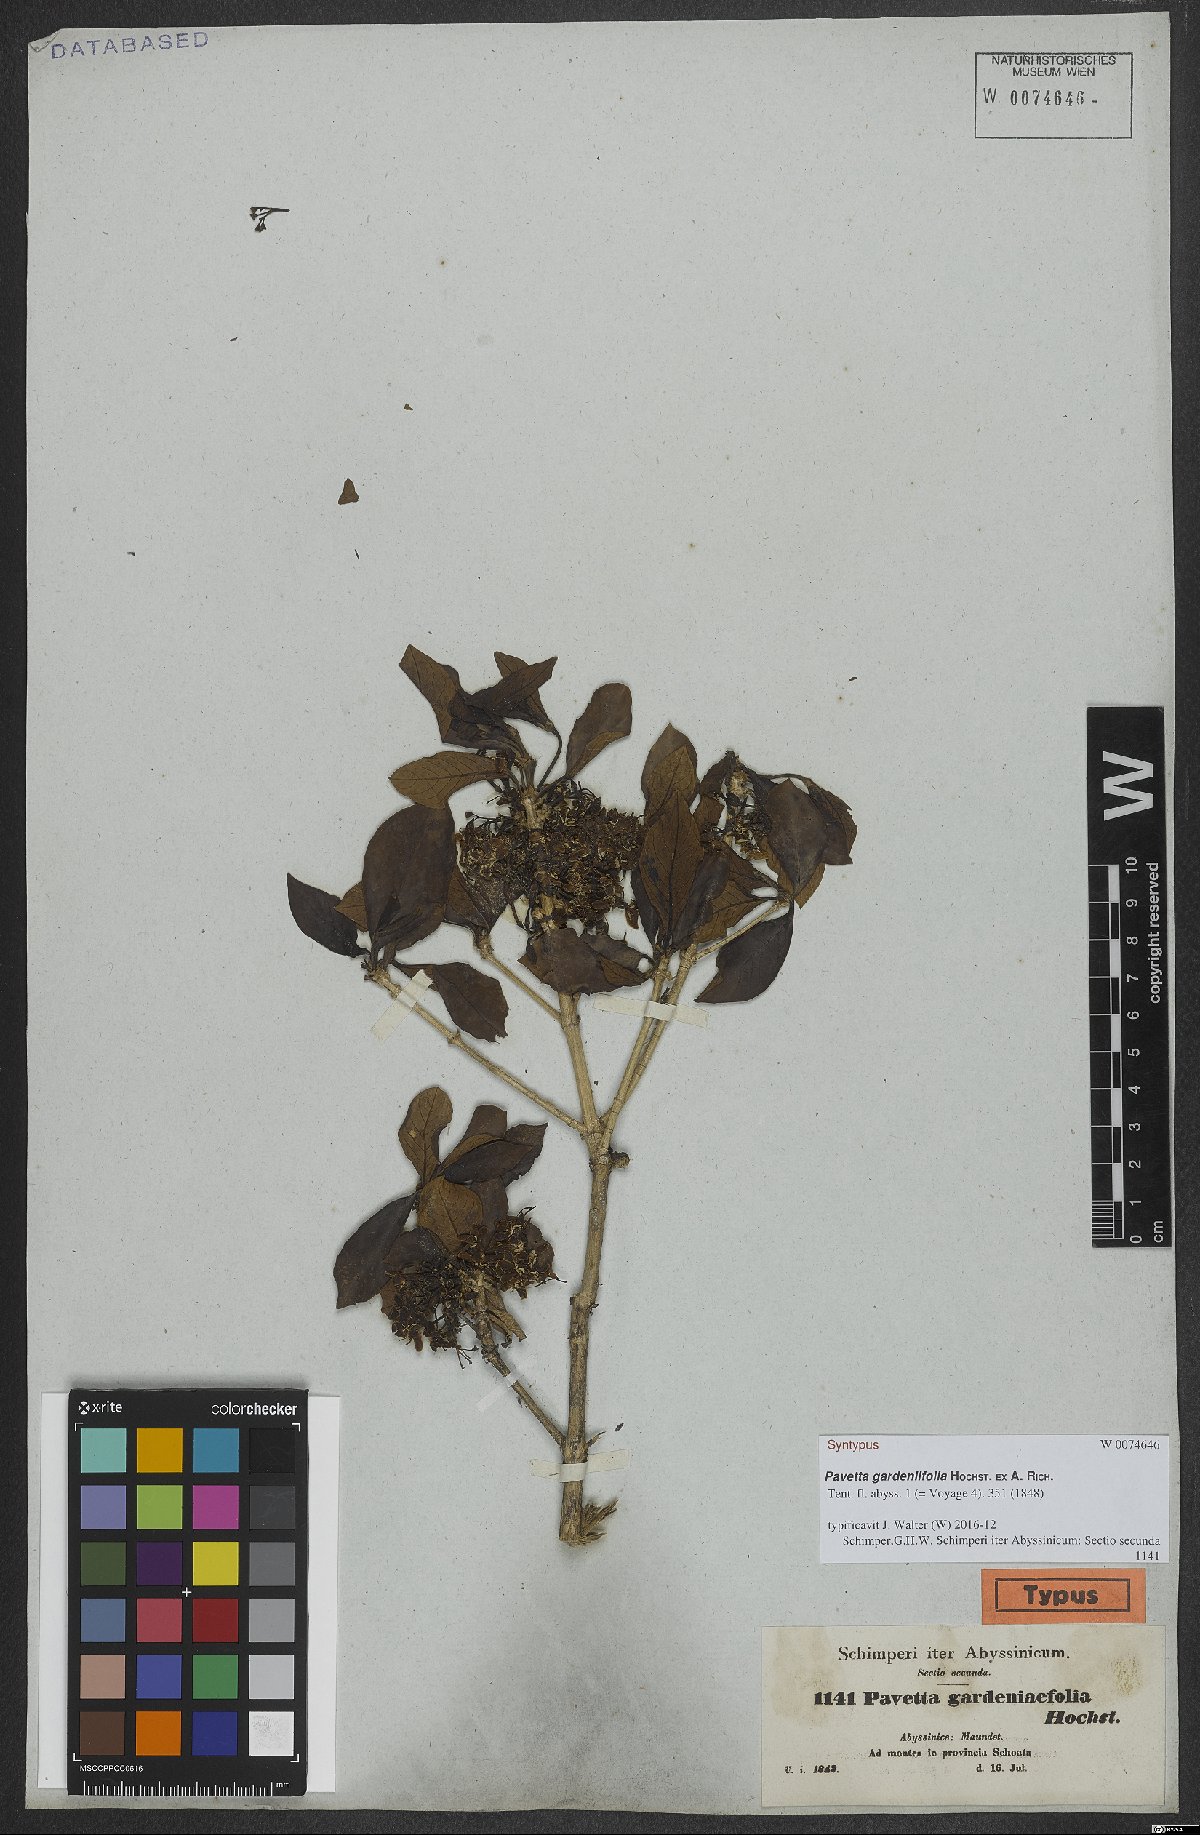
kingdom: Plantae
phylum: Tracheophyta
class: Magnoliopsida
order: Gentianales
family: Rubiaceae
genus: Pavetta
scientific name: Pavetta gardeniifolia
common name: Common brides-bush
